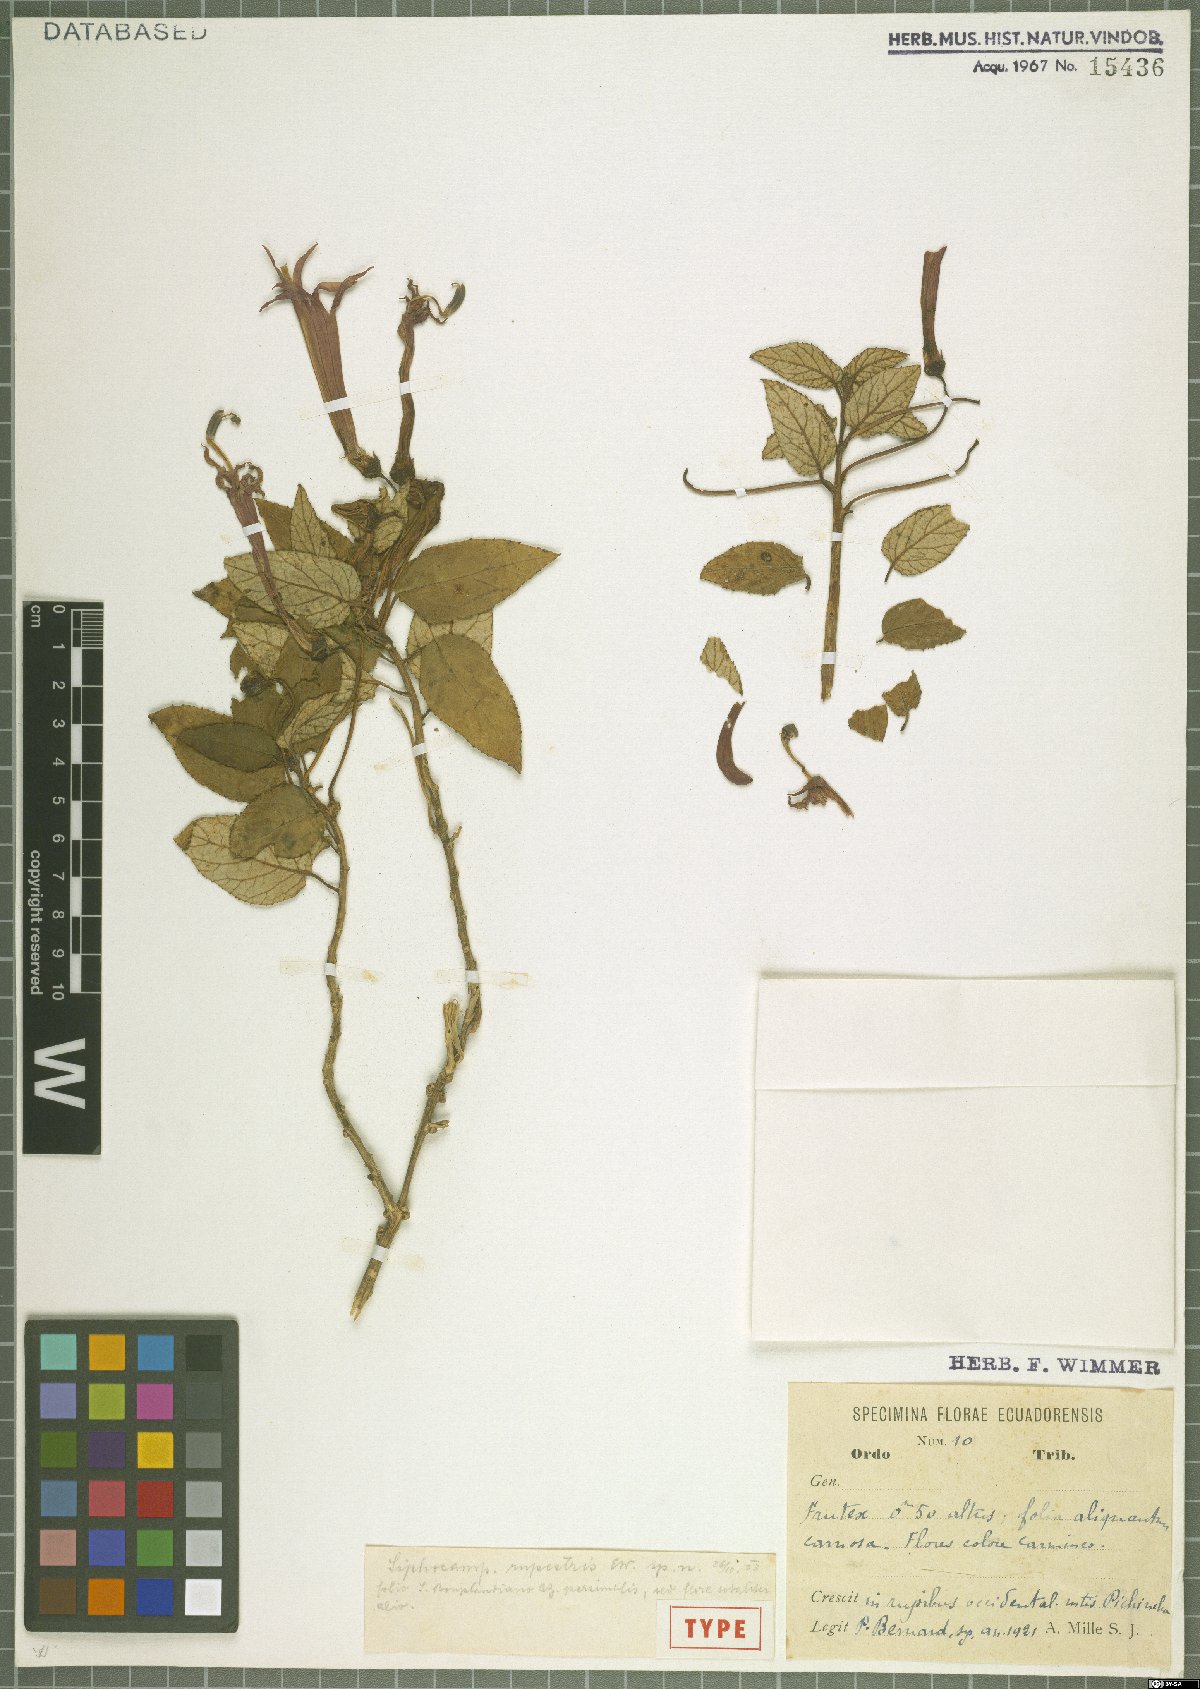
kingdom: Plantae
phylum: Tracheophyta
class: Magnoliopsida
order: Asterales
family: Campanulaceae
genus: Siphocampylus
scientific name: Siphocampylus rupestris
